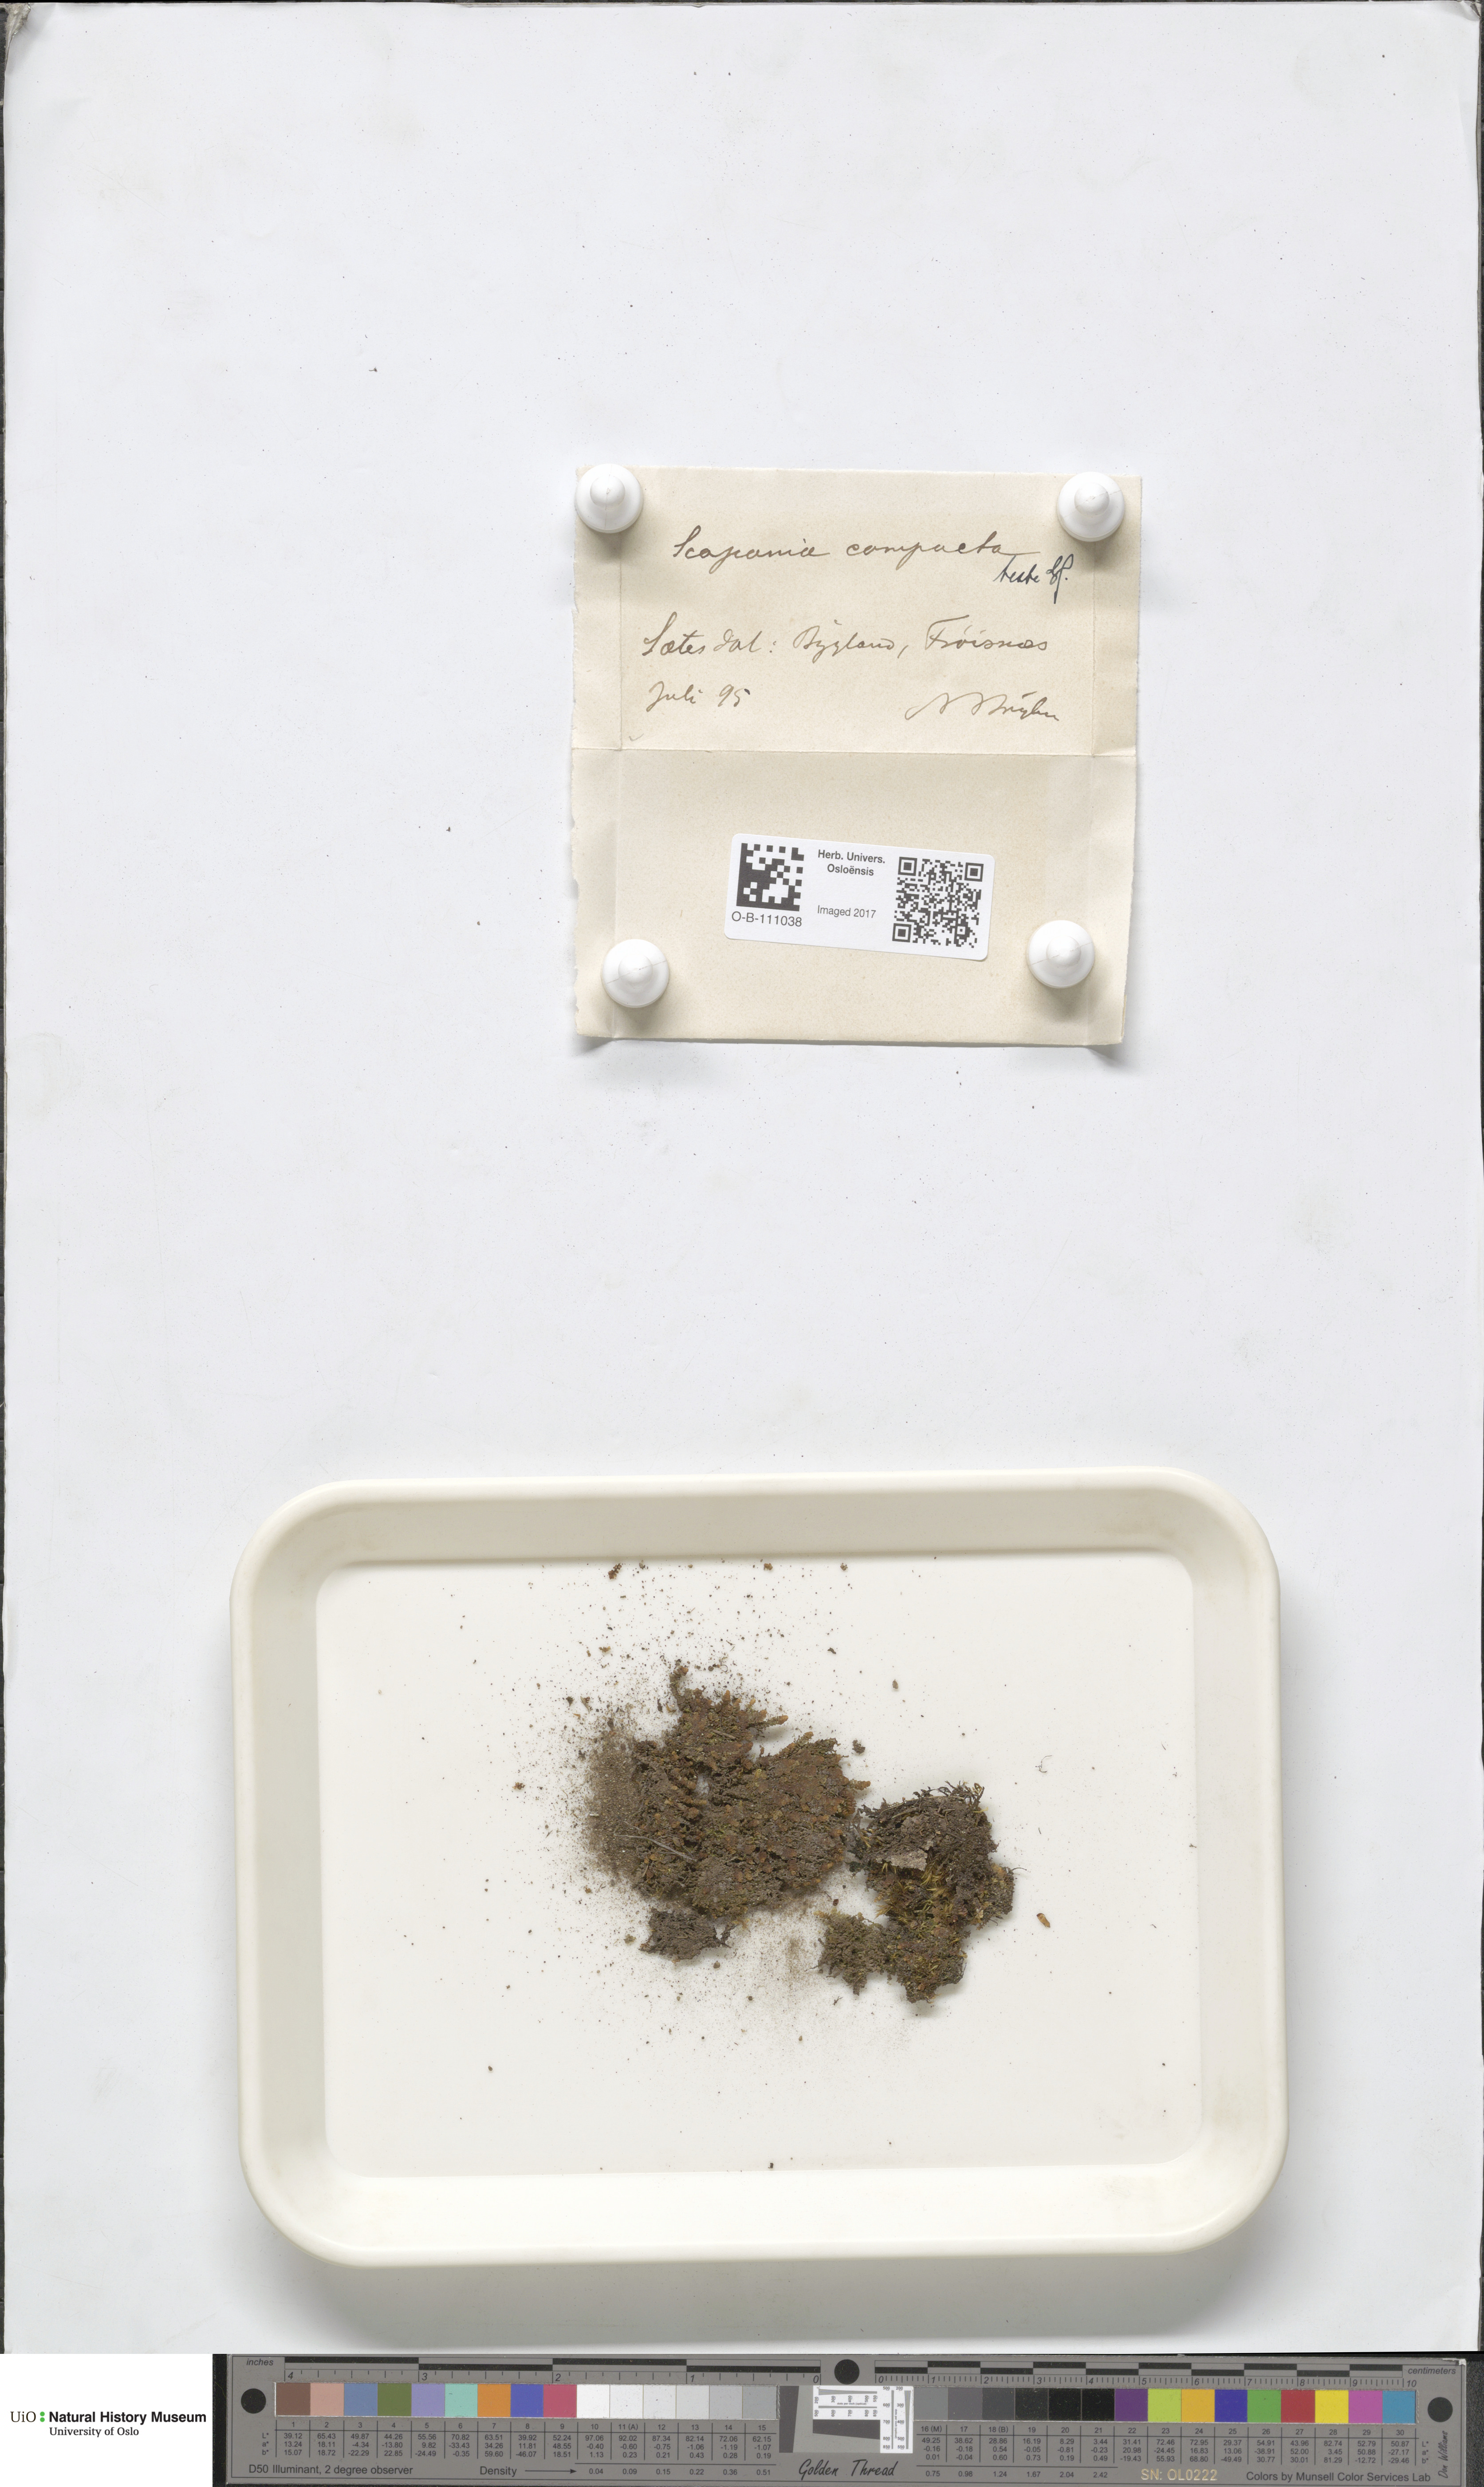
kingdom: Plantae
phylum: Marchantiophyta
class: Jungermanniopsida
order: Jungermanniales
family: Scapaniaceae
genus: Scapania
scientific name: Scapania compacta
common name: Thick-set earwort
